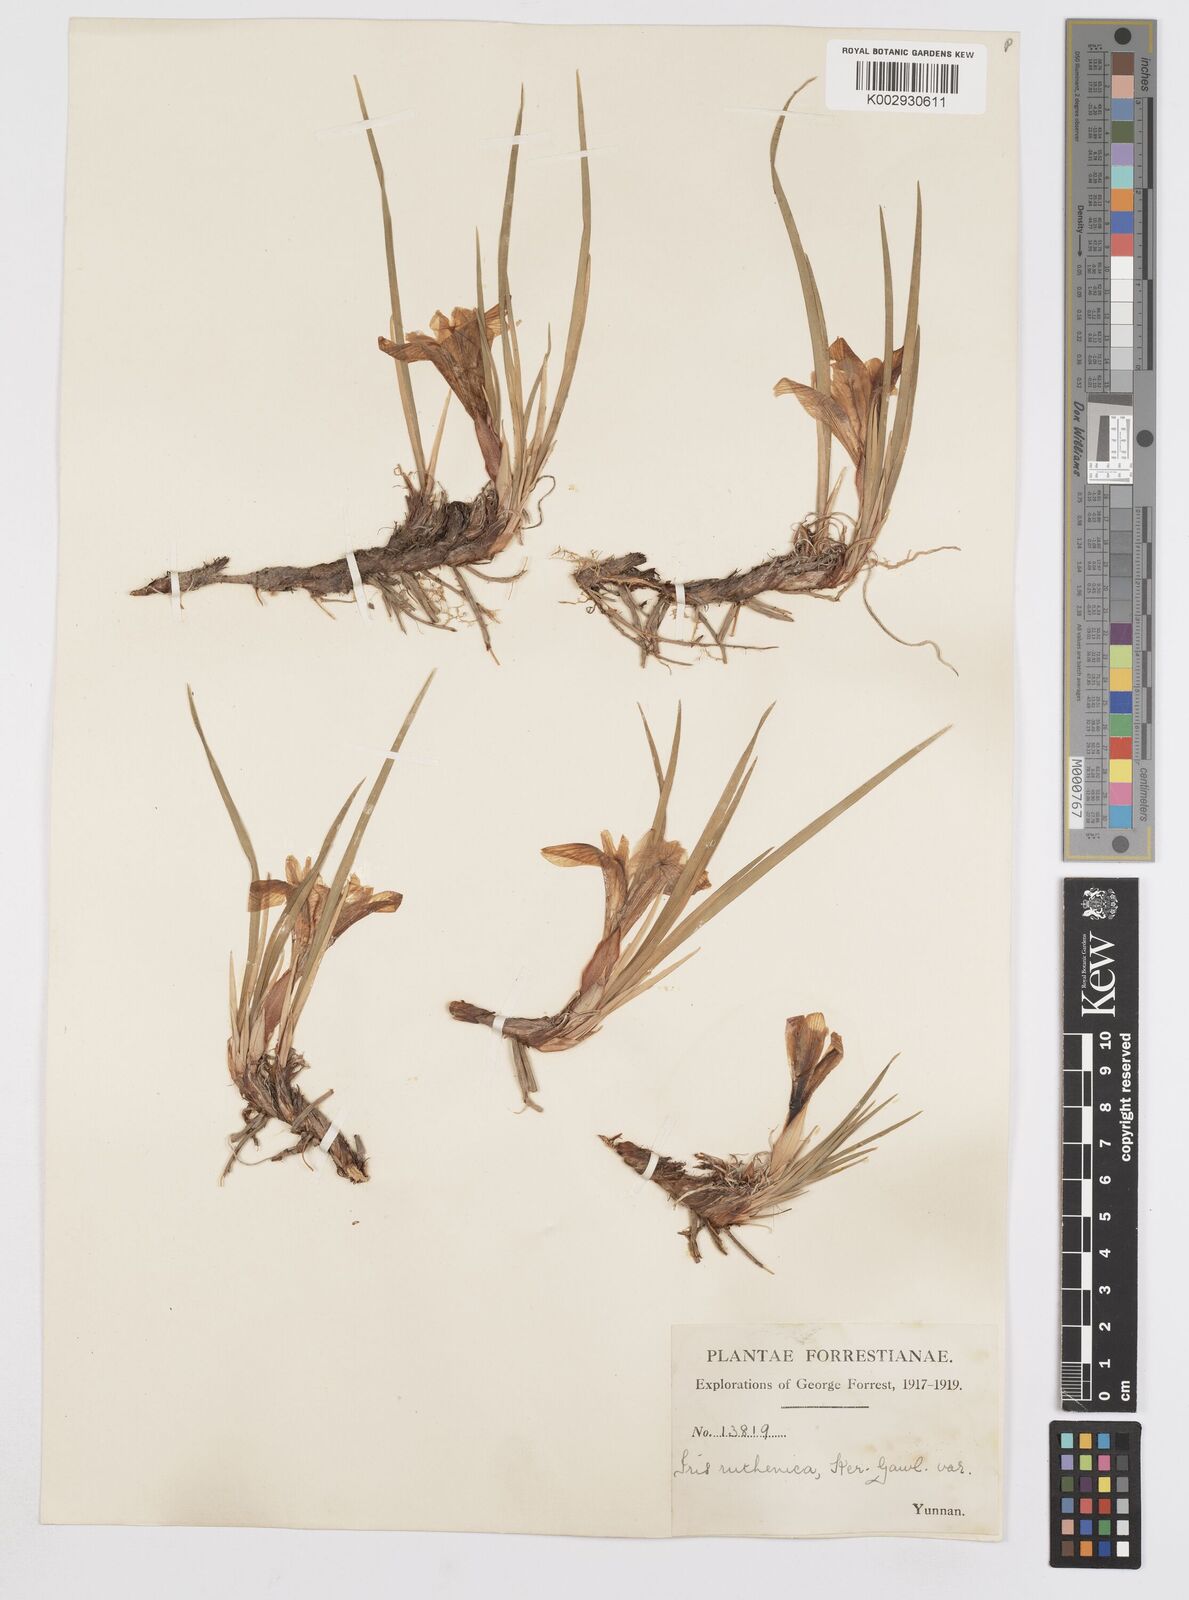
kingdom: Plantae
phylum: Tracheophyta
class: Liliopsida
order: Asparagales
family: Iridaceae
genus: Iris
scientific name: Iris ruthenica
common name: Purple-bract iris
